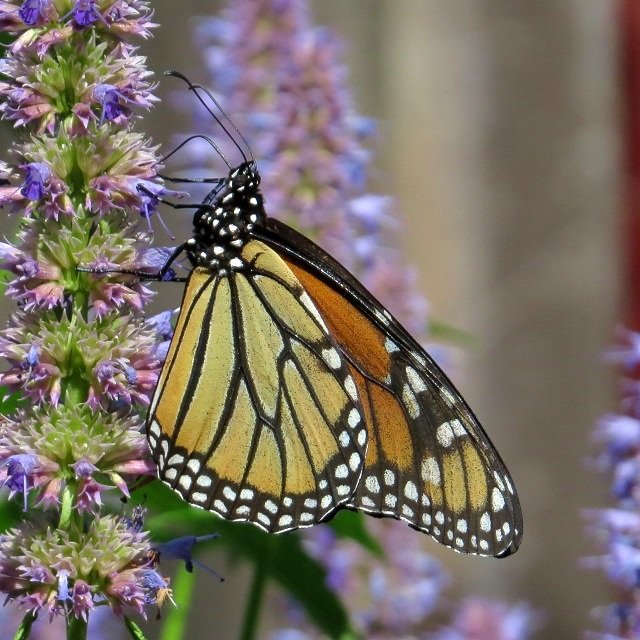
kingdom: Animalia
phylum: Arthropoda
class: Insecta
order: Lepidoptera
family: Nymphalidae
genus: Danaus
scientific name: Danaus plexippus
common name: Monarch
